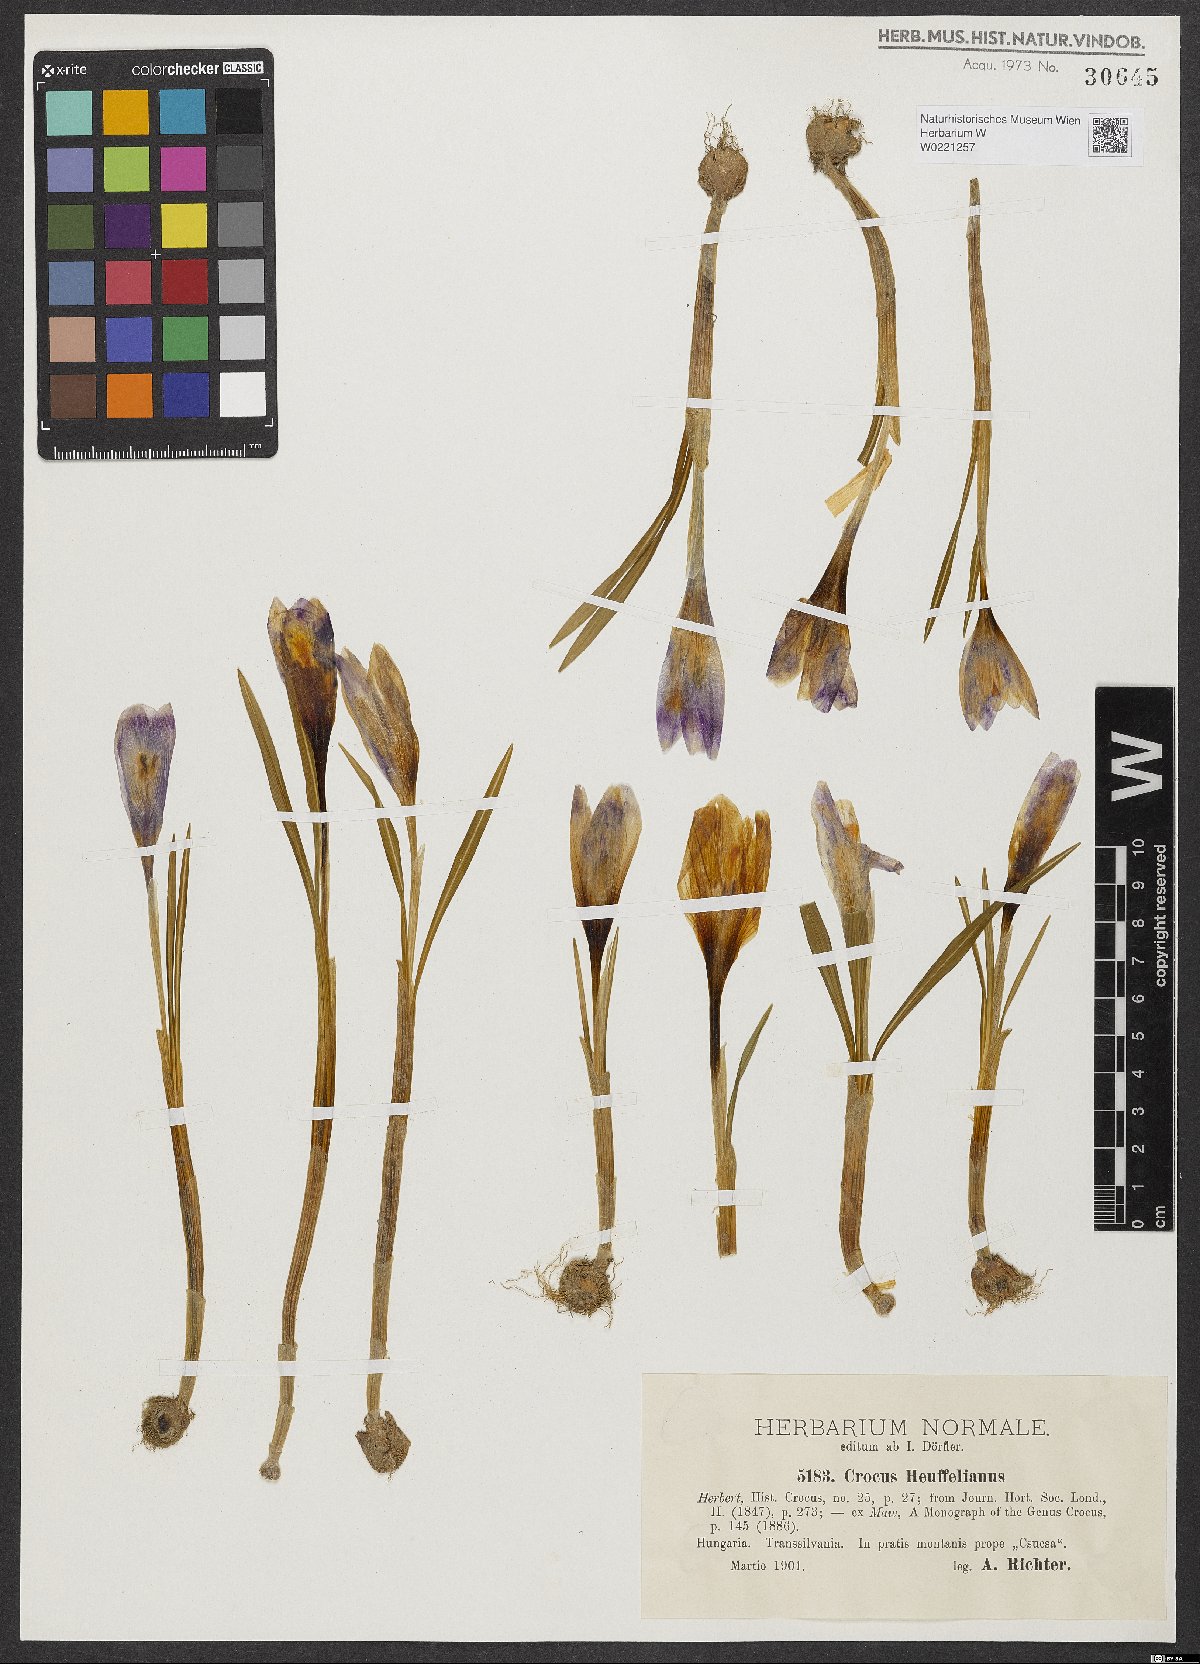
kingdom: Plantae
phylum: Tracheophyta
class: Liliopsida
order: Asparagales
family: Iridaceae
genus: Crocus
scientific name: Crocus heuffelianus
